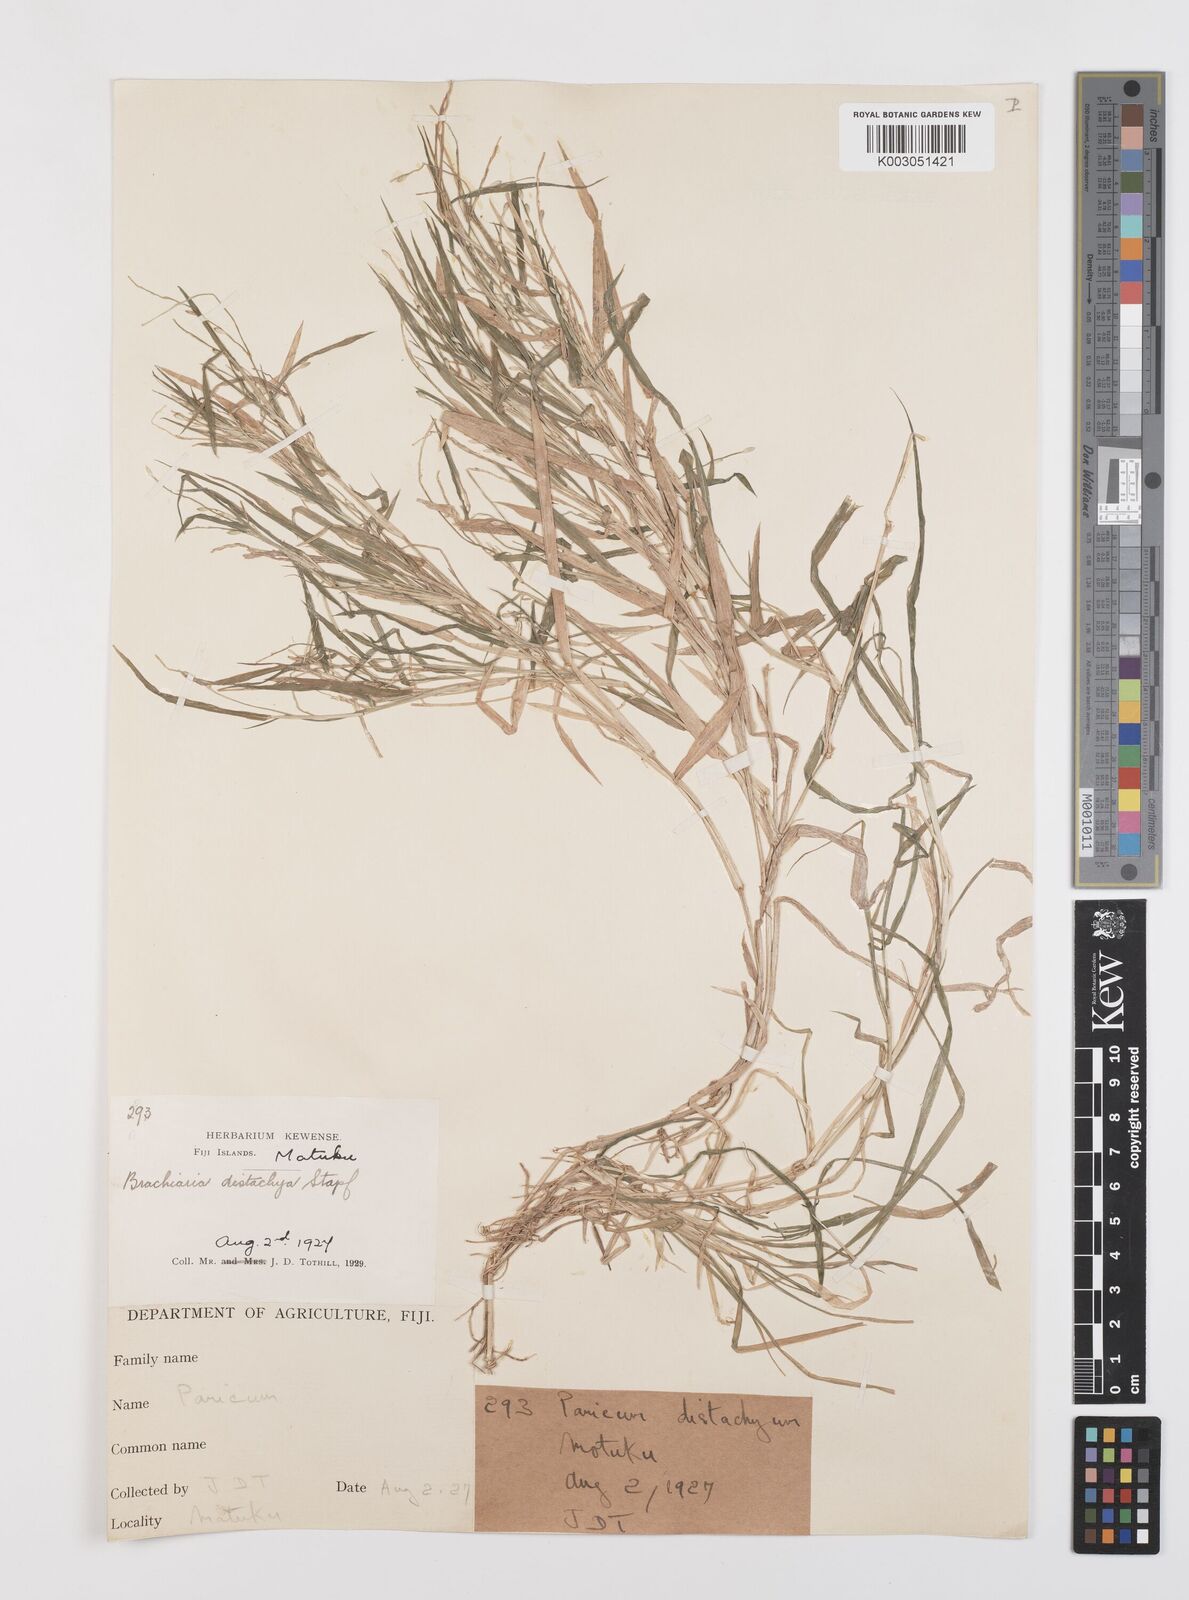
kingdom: Plantae
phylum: Tracheophyta
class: Liliopsida
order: Poales
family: Poaceae
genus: Urochloa
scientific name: Urochloa subquadripara
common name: Armgrass millet
